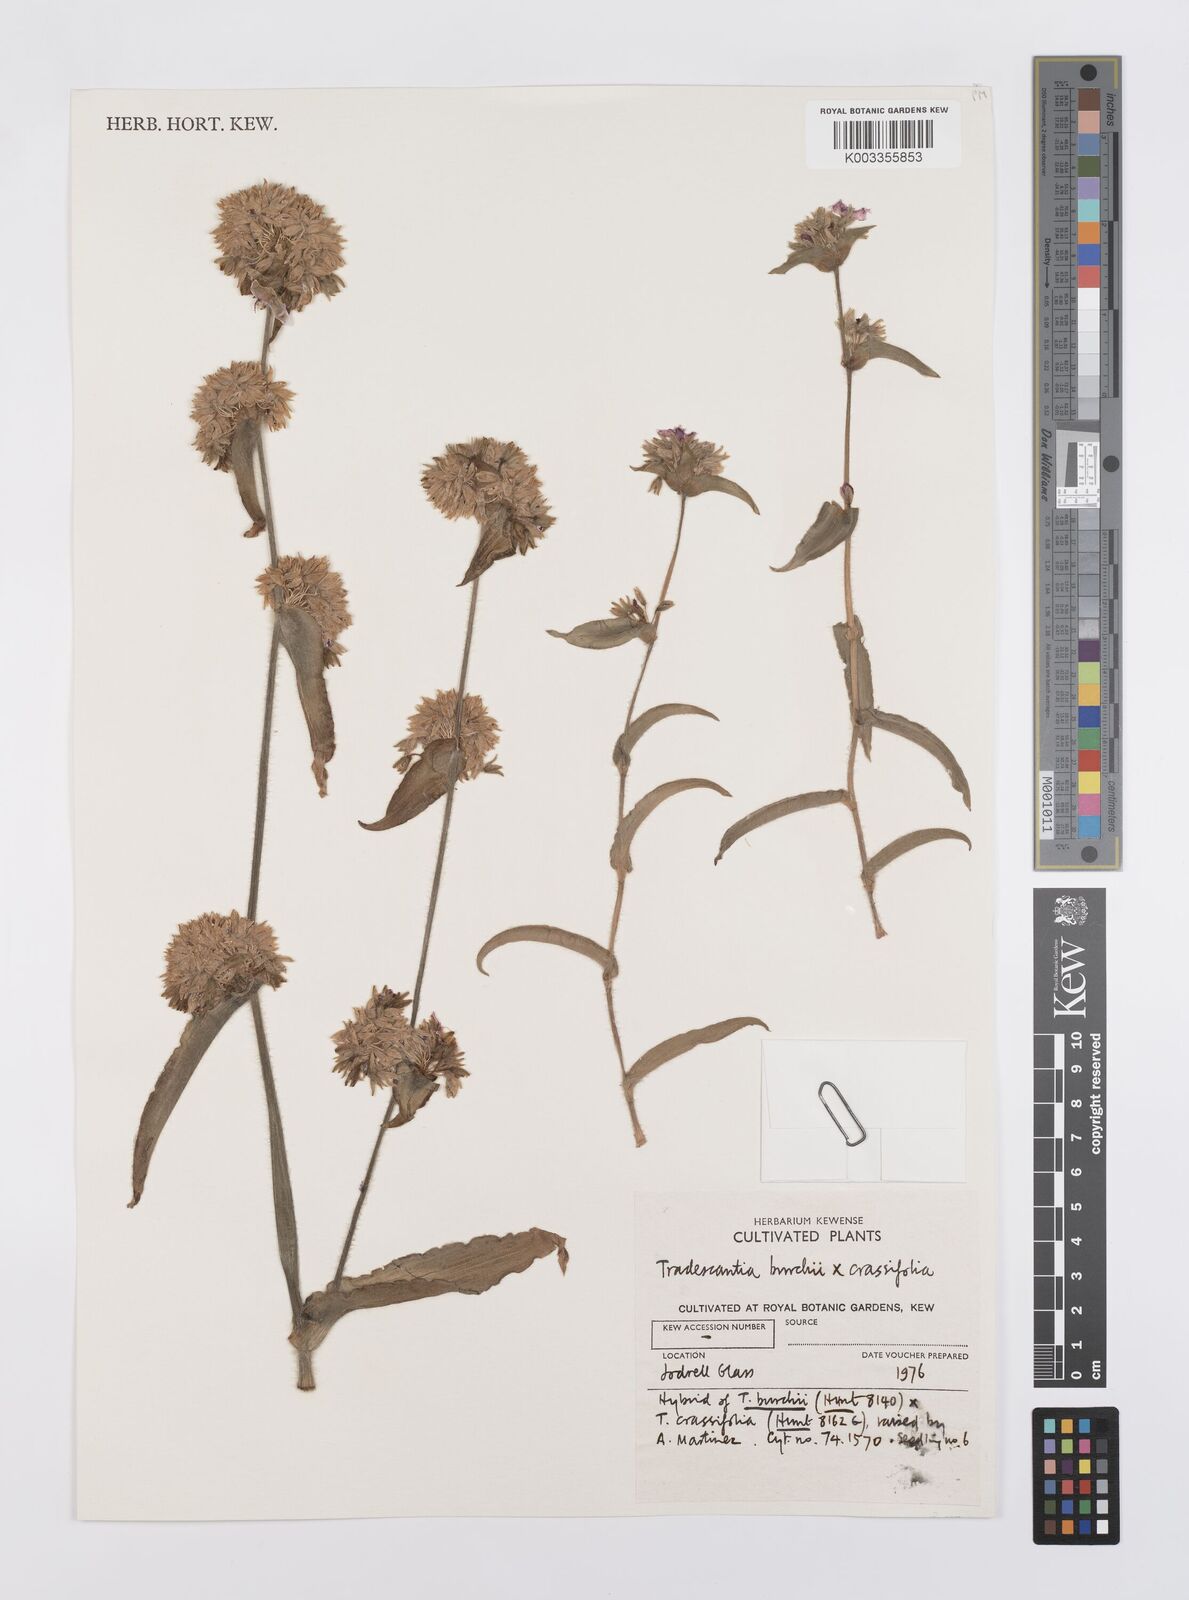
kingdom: Plantae
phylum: Tracheophyta
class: Liliopsida
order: Commelinales
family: Commelinaceae
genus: Tradescantia
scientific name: Tradescantia burchii
